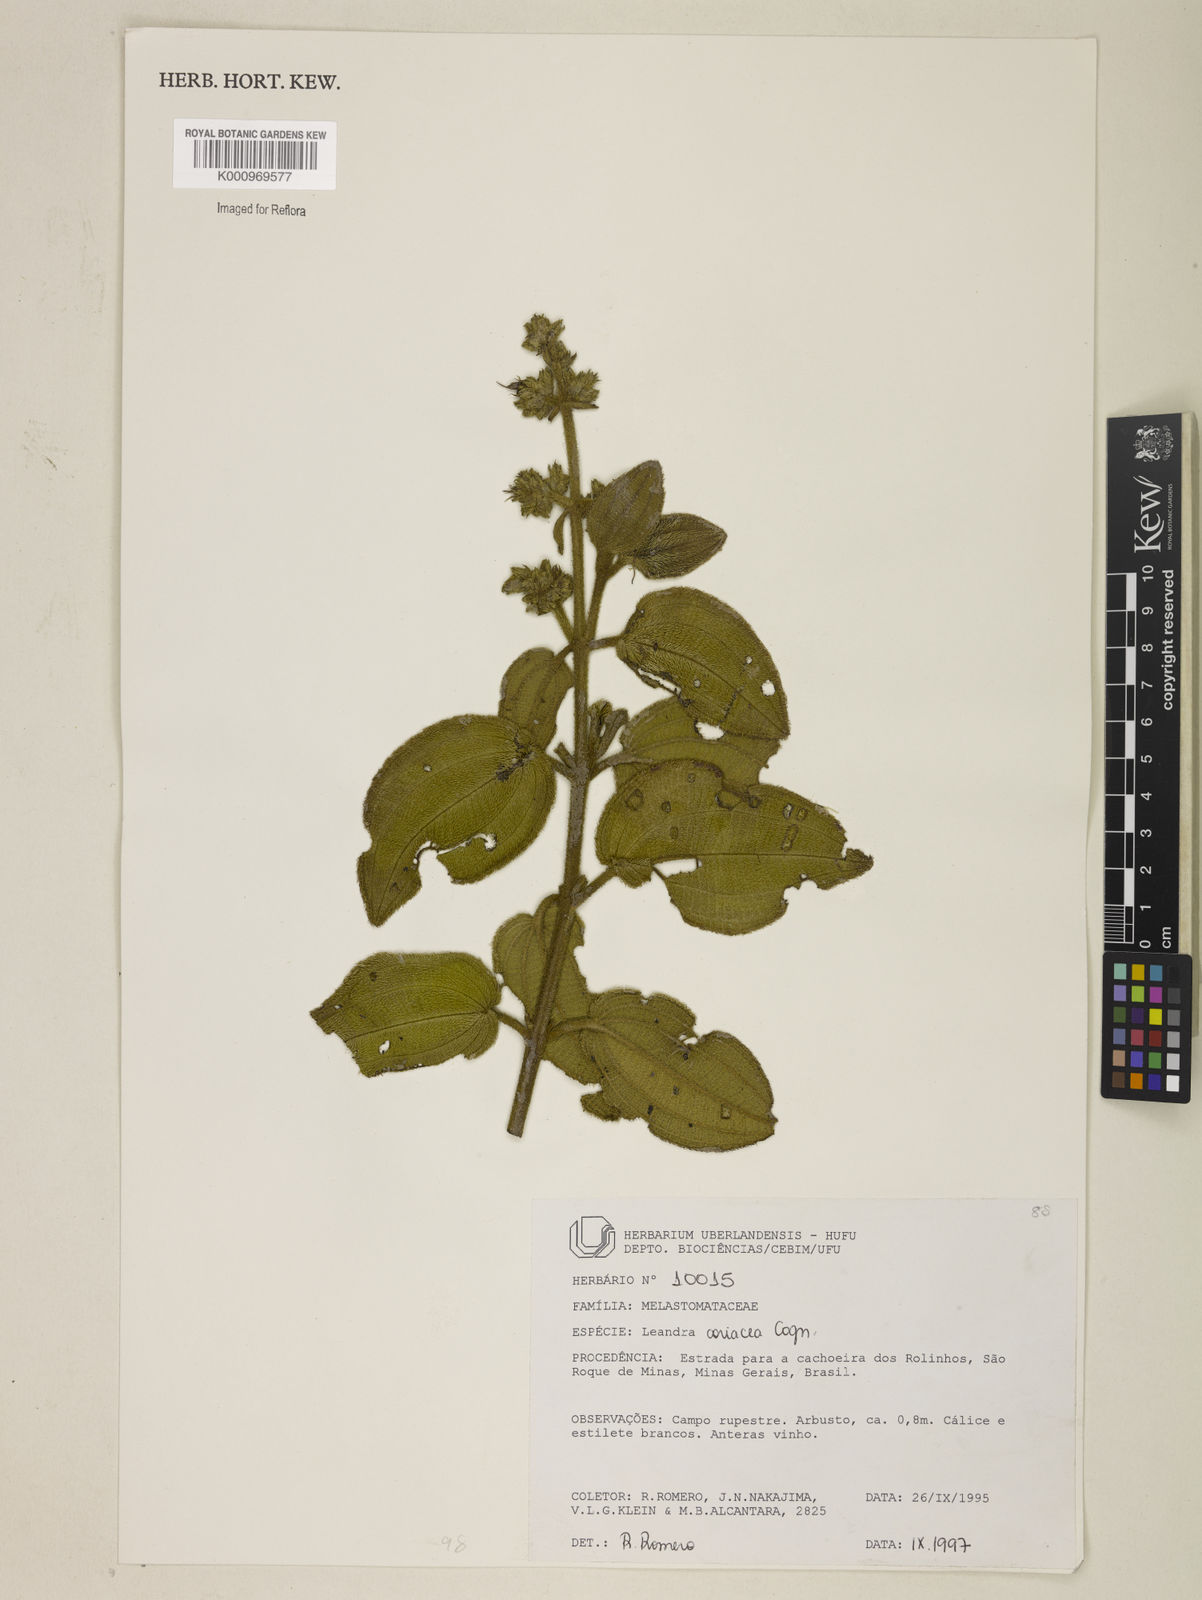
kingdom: Plantae
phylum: Tracheophyta
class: Magnoliopsida
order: Myrtales
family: Melastomataceae
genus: Miconia
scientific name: Miconia leacoriacea
